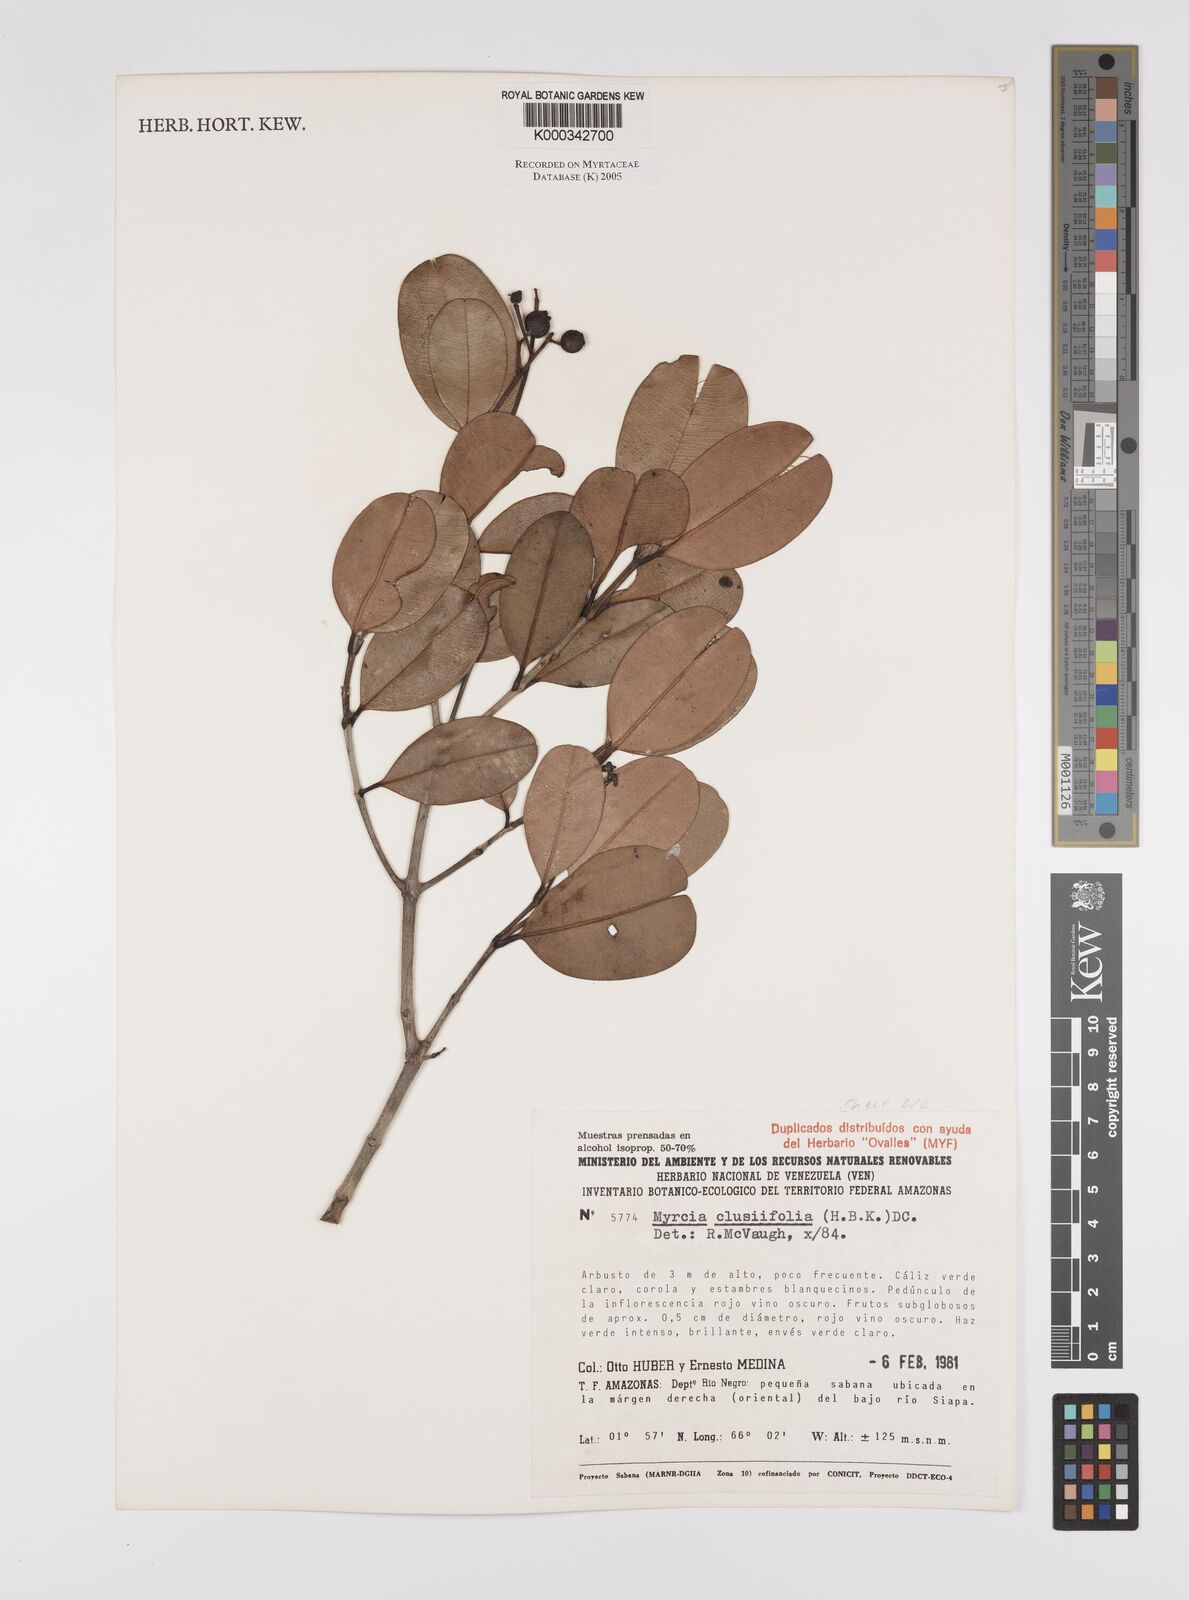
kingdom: Plantae
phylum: Tracheophyta
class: Magnoliopsida
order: Myrtales
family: Myrtaceae
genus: Myrcia
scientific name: Myrcia clusiifolia
